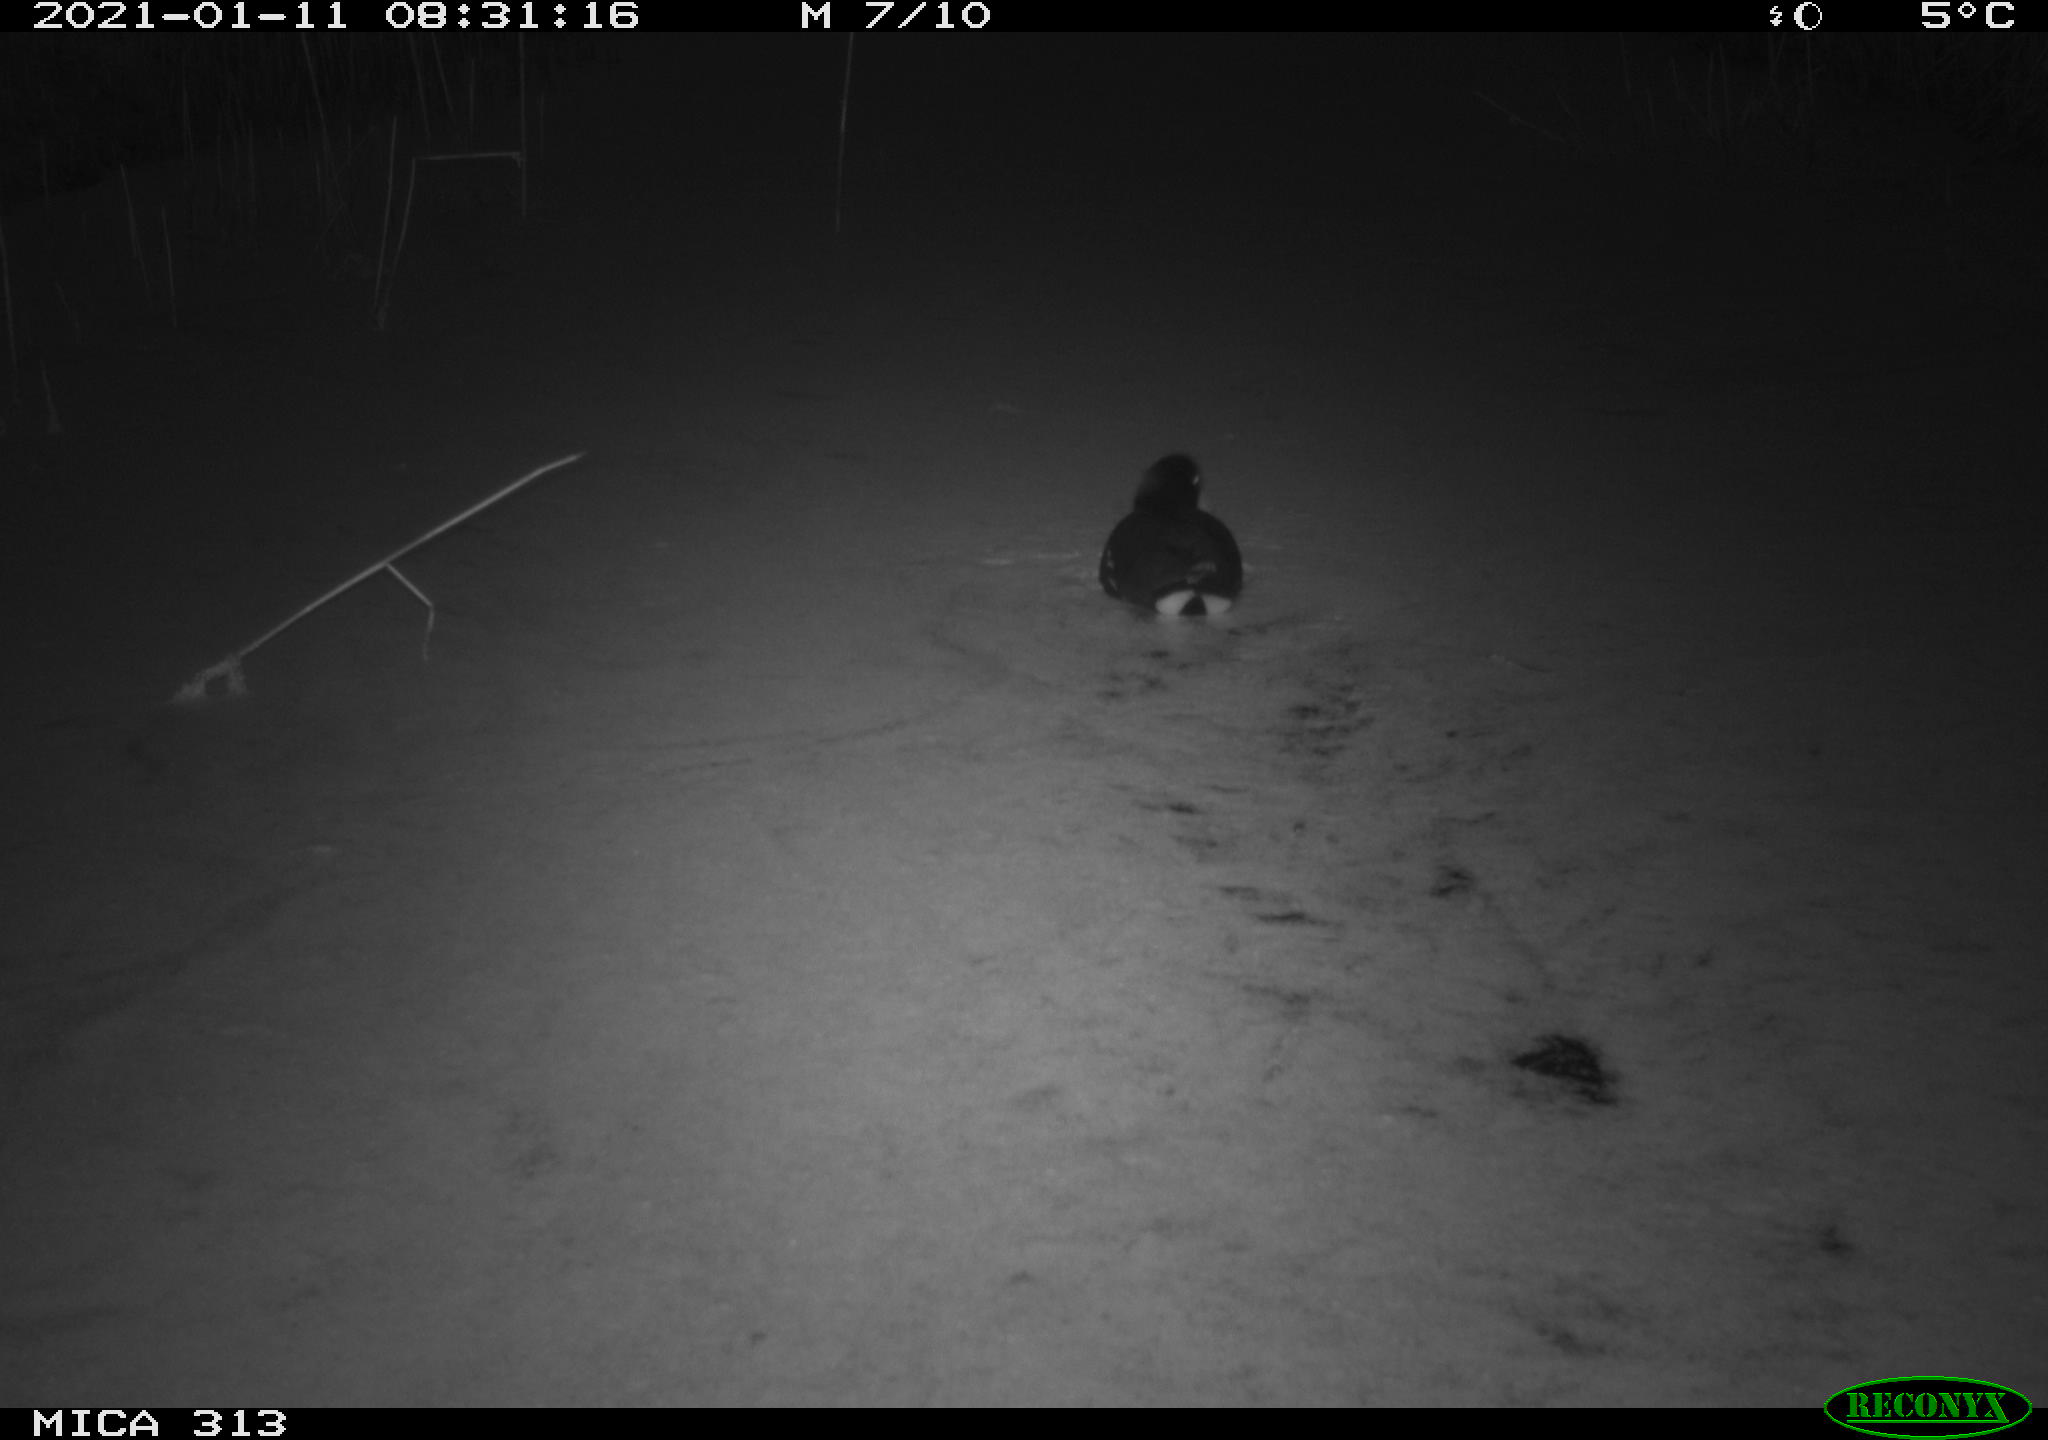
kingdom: Animalia
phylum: Chordata
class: Aves
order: Gruiformes
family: Rallidae
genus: Gallinula
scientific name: Gallinula chloropus
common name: Common moorhen
